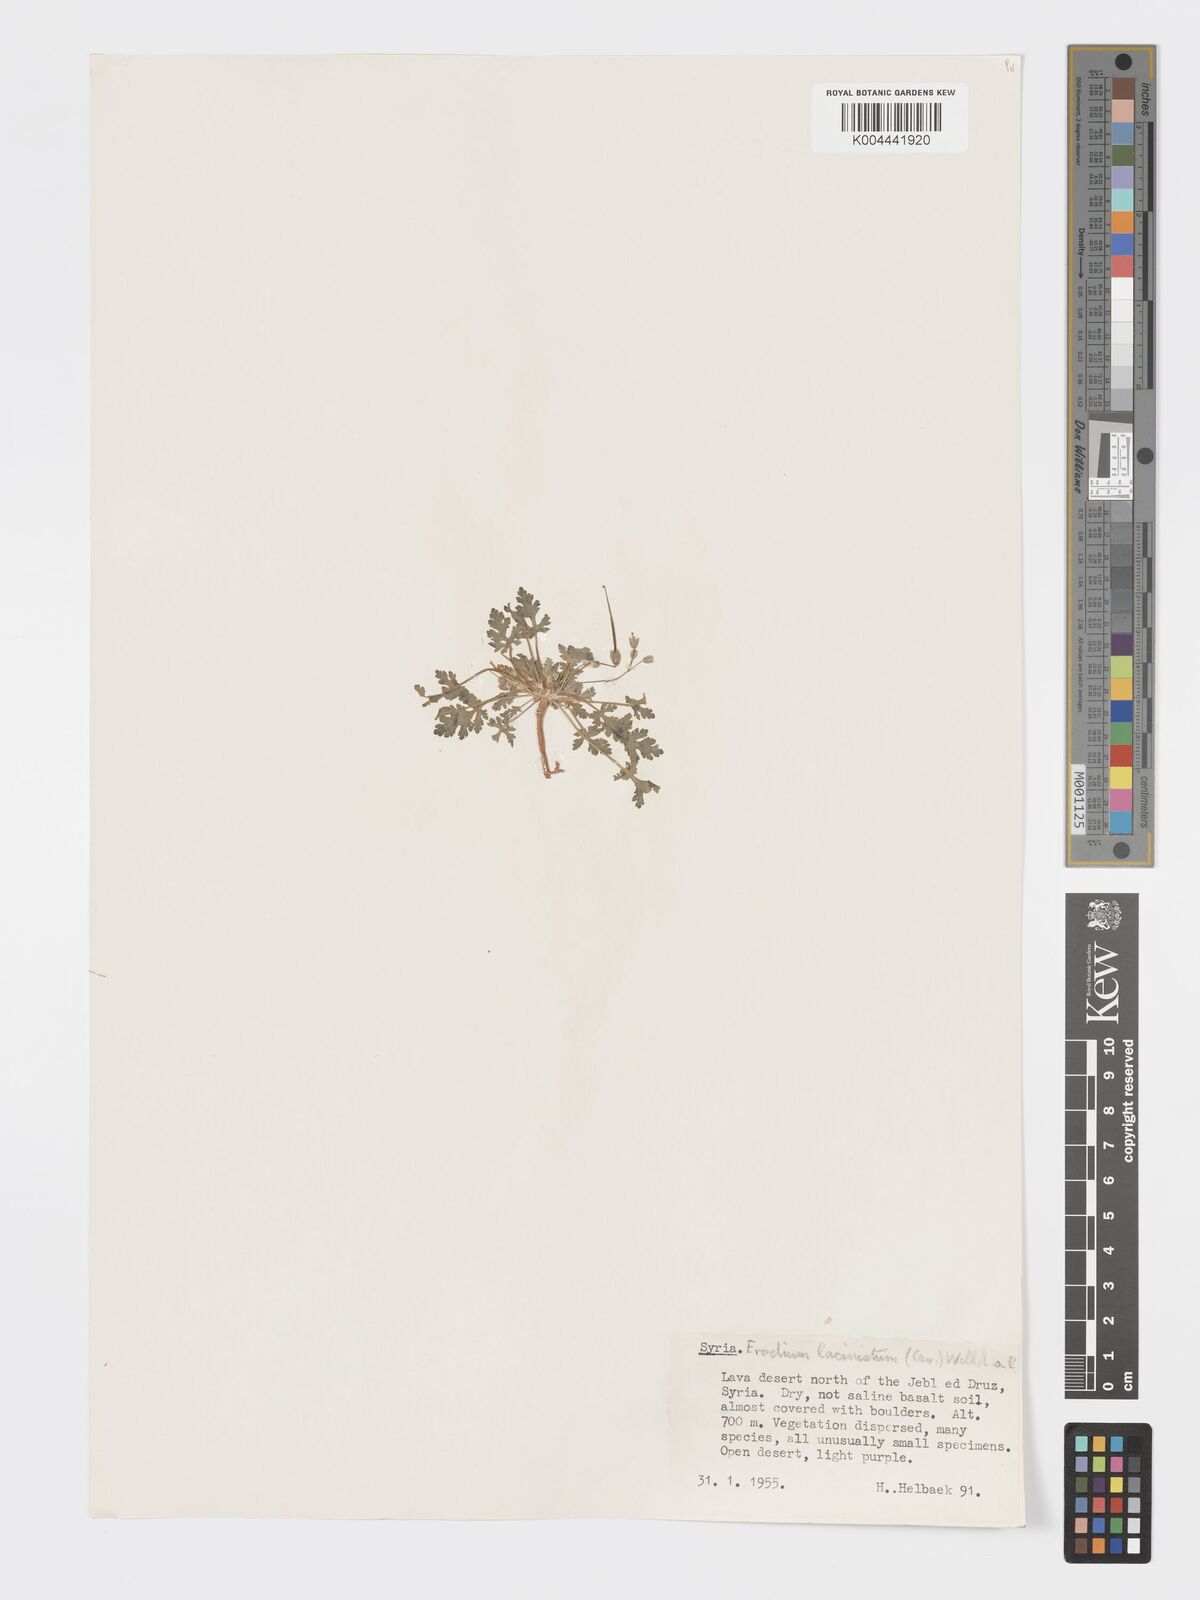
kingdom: Plantae
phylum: Tracheophyta
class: Magnoliopsida
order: Geraniales
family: Geraniaceae
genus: Erodium
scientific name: Erodium laciniatum
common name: Cutleaf stork's bill
